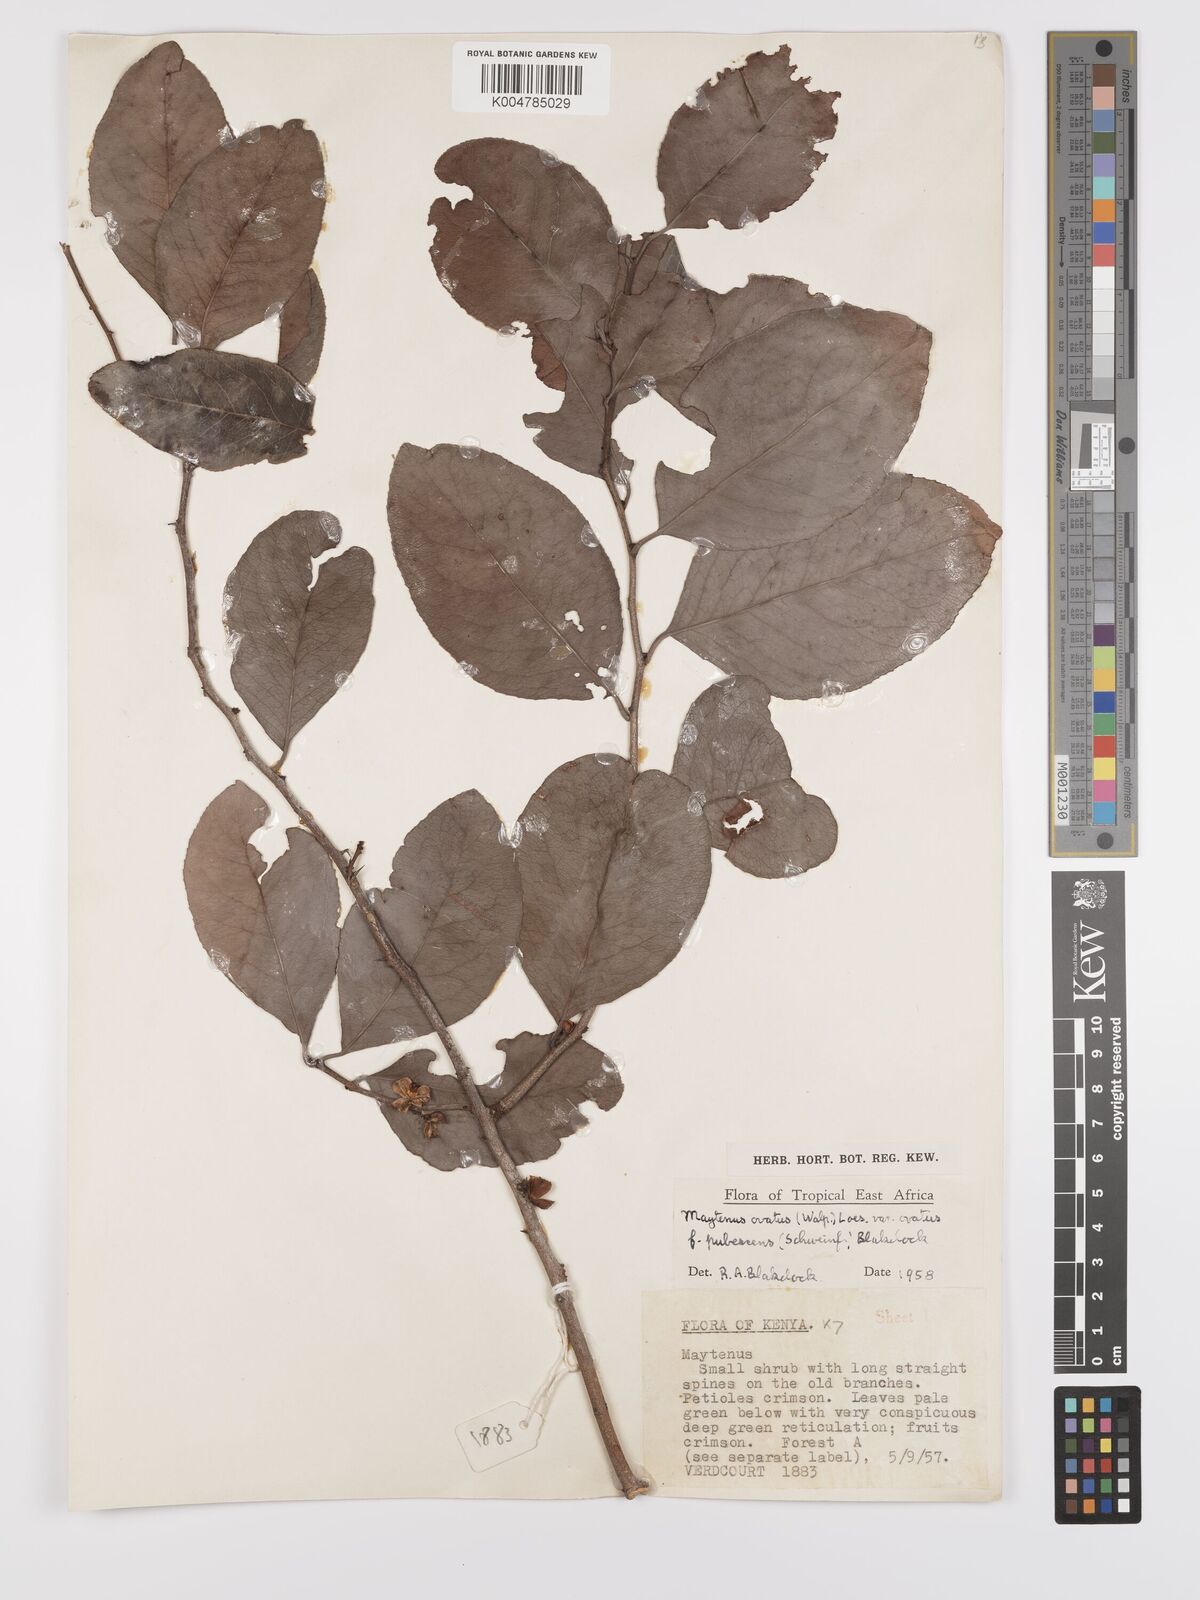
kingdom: Plantae
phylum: Tracheophyta
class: Magnoliopsida
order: Celastrales
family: Celastraceae
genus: Gymnosporia
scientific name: Gymnosporia buchananii
